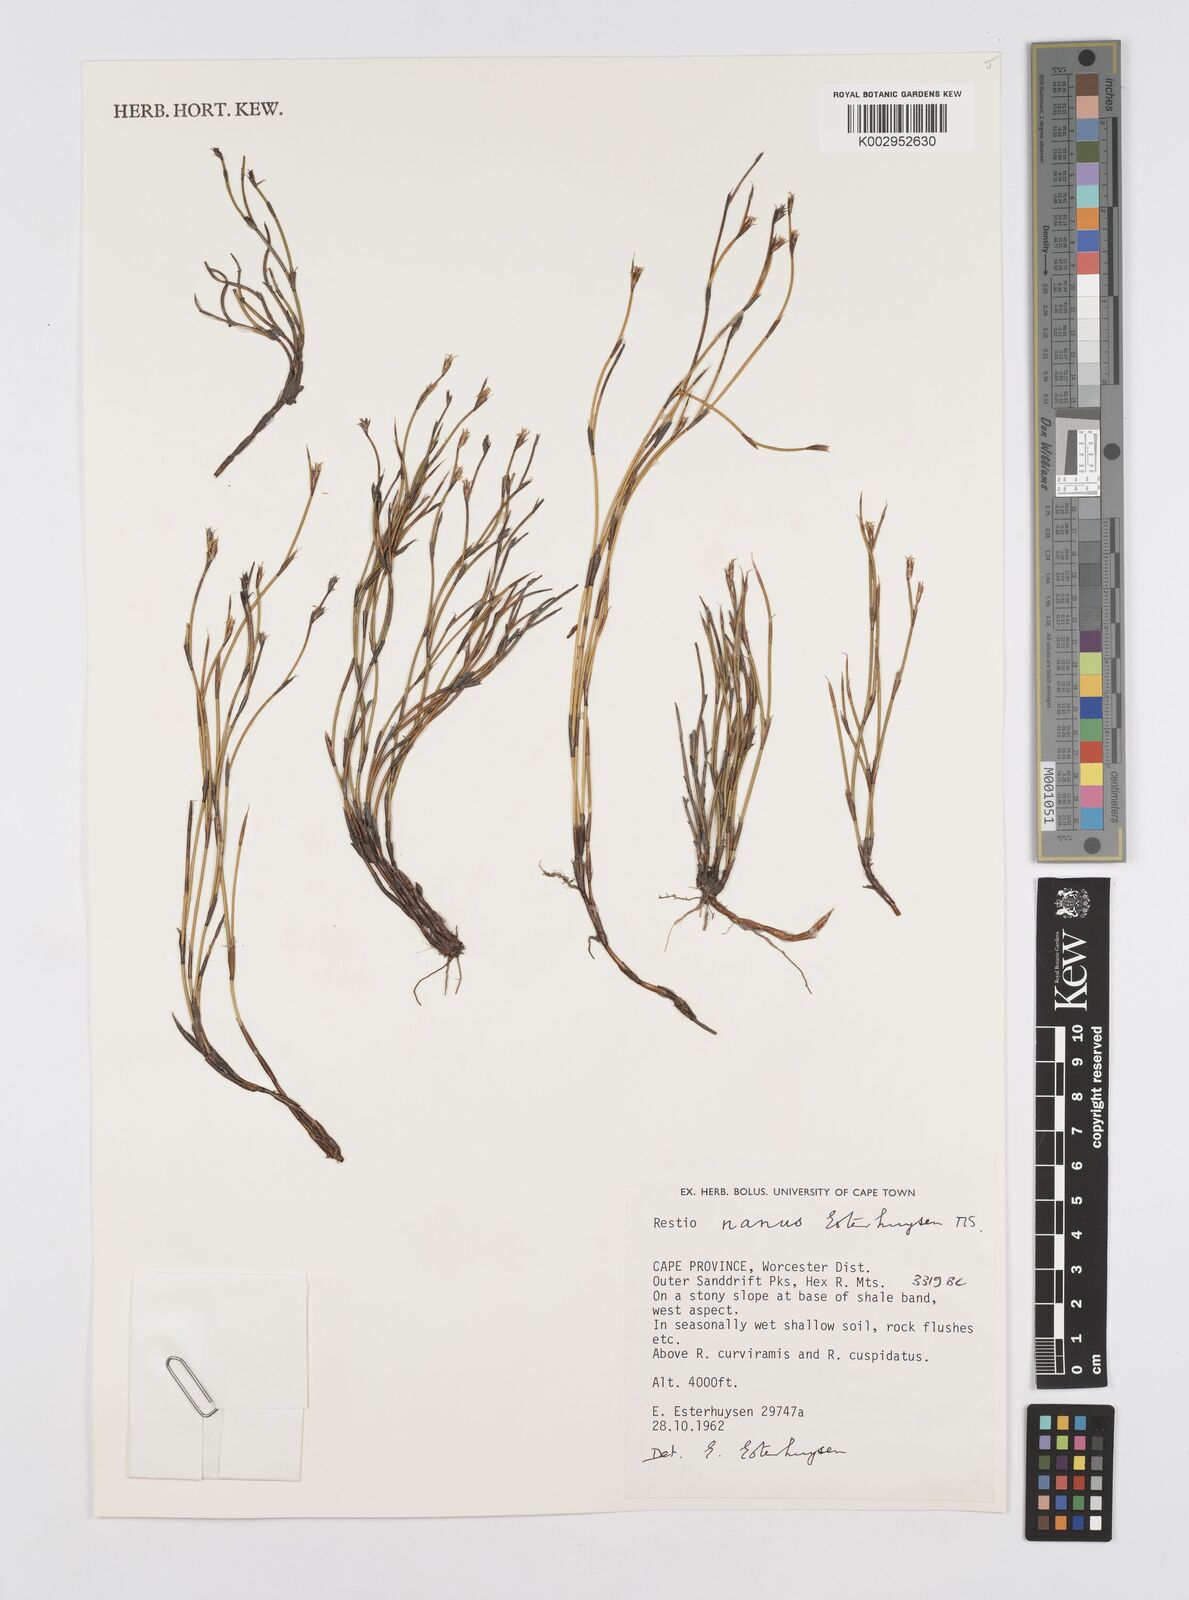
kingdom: Plantae
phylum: Tracheophyta
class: Liliopsida
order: Poales
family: Restionaceae
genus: Restio
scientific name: Restio karooicus
